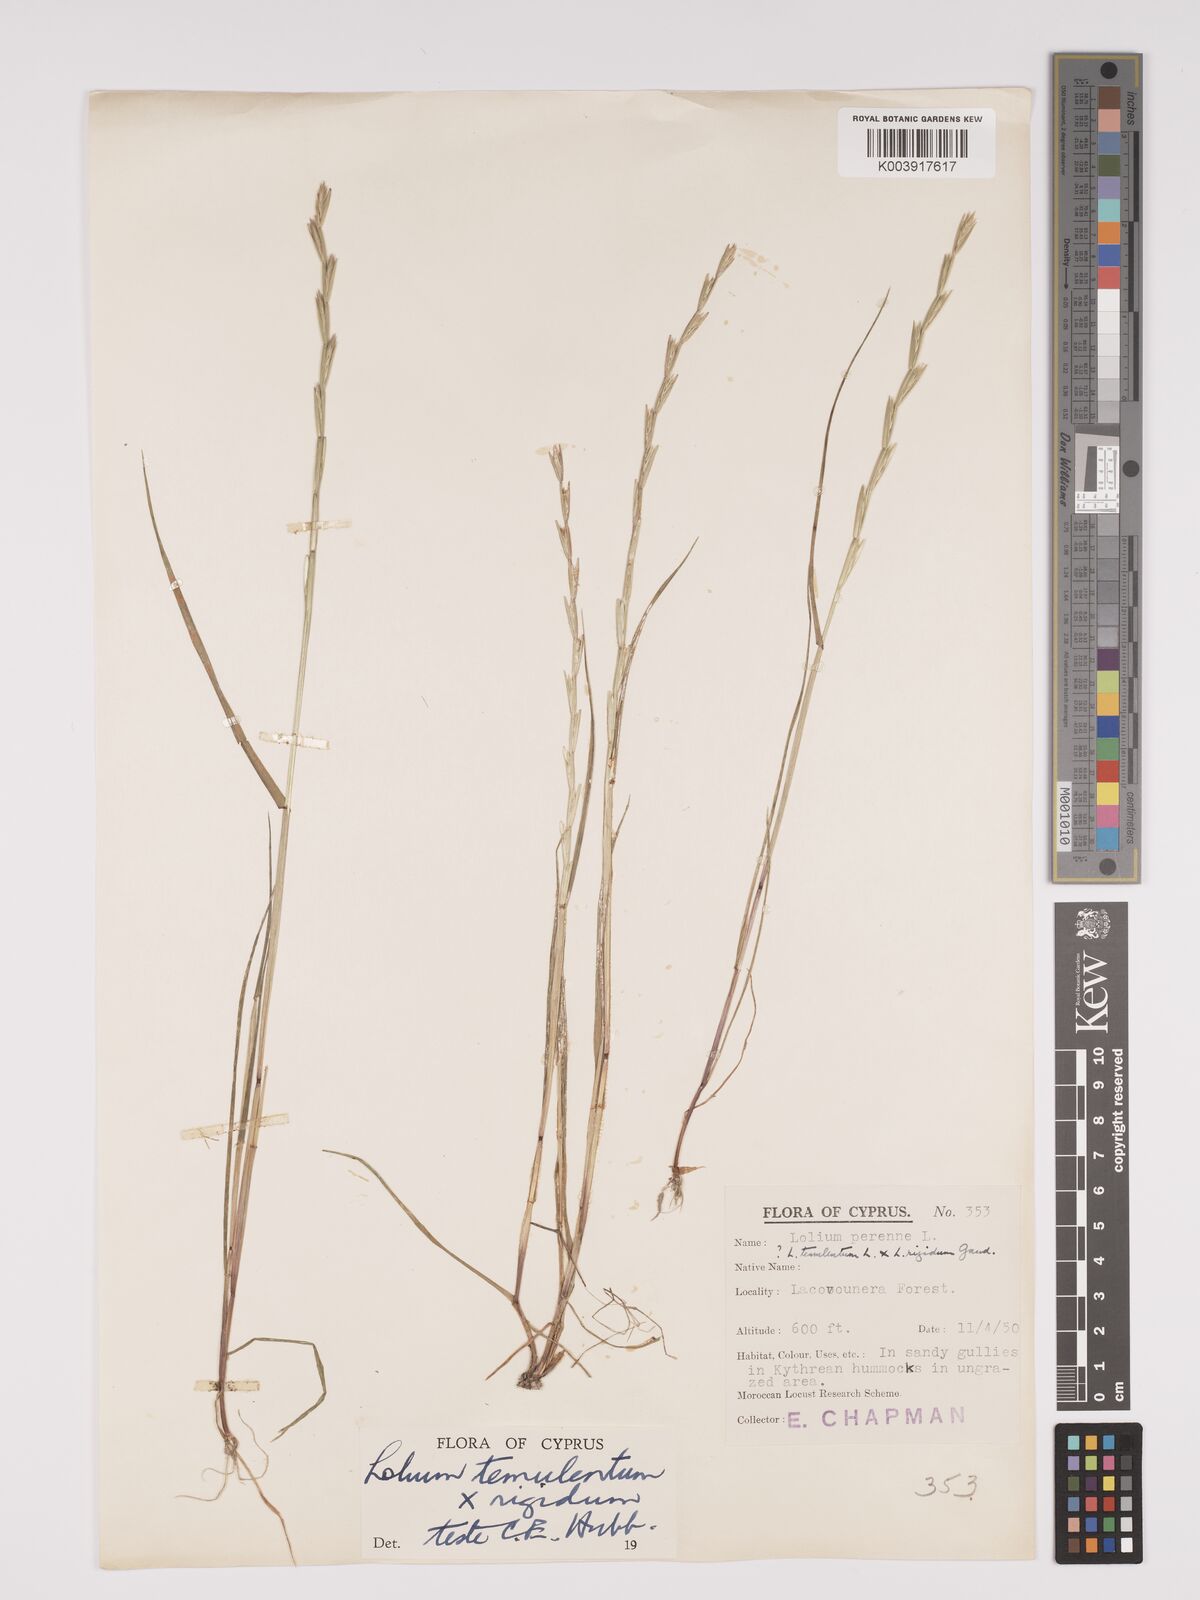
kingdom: Plantae
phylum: Tracheophyta
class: Liliopsida
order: Poales
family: Poaceae
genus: Lolium
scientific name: Lolium temulentum
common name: Darnel
